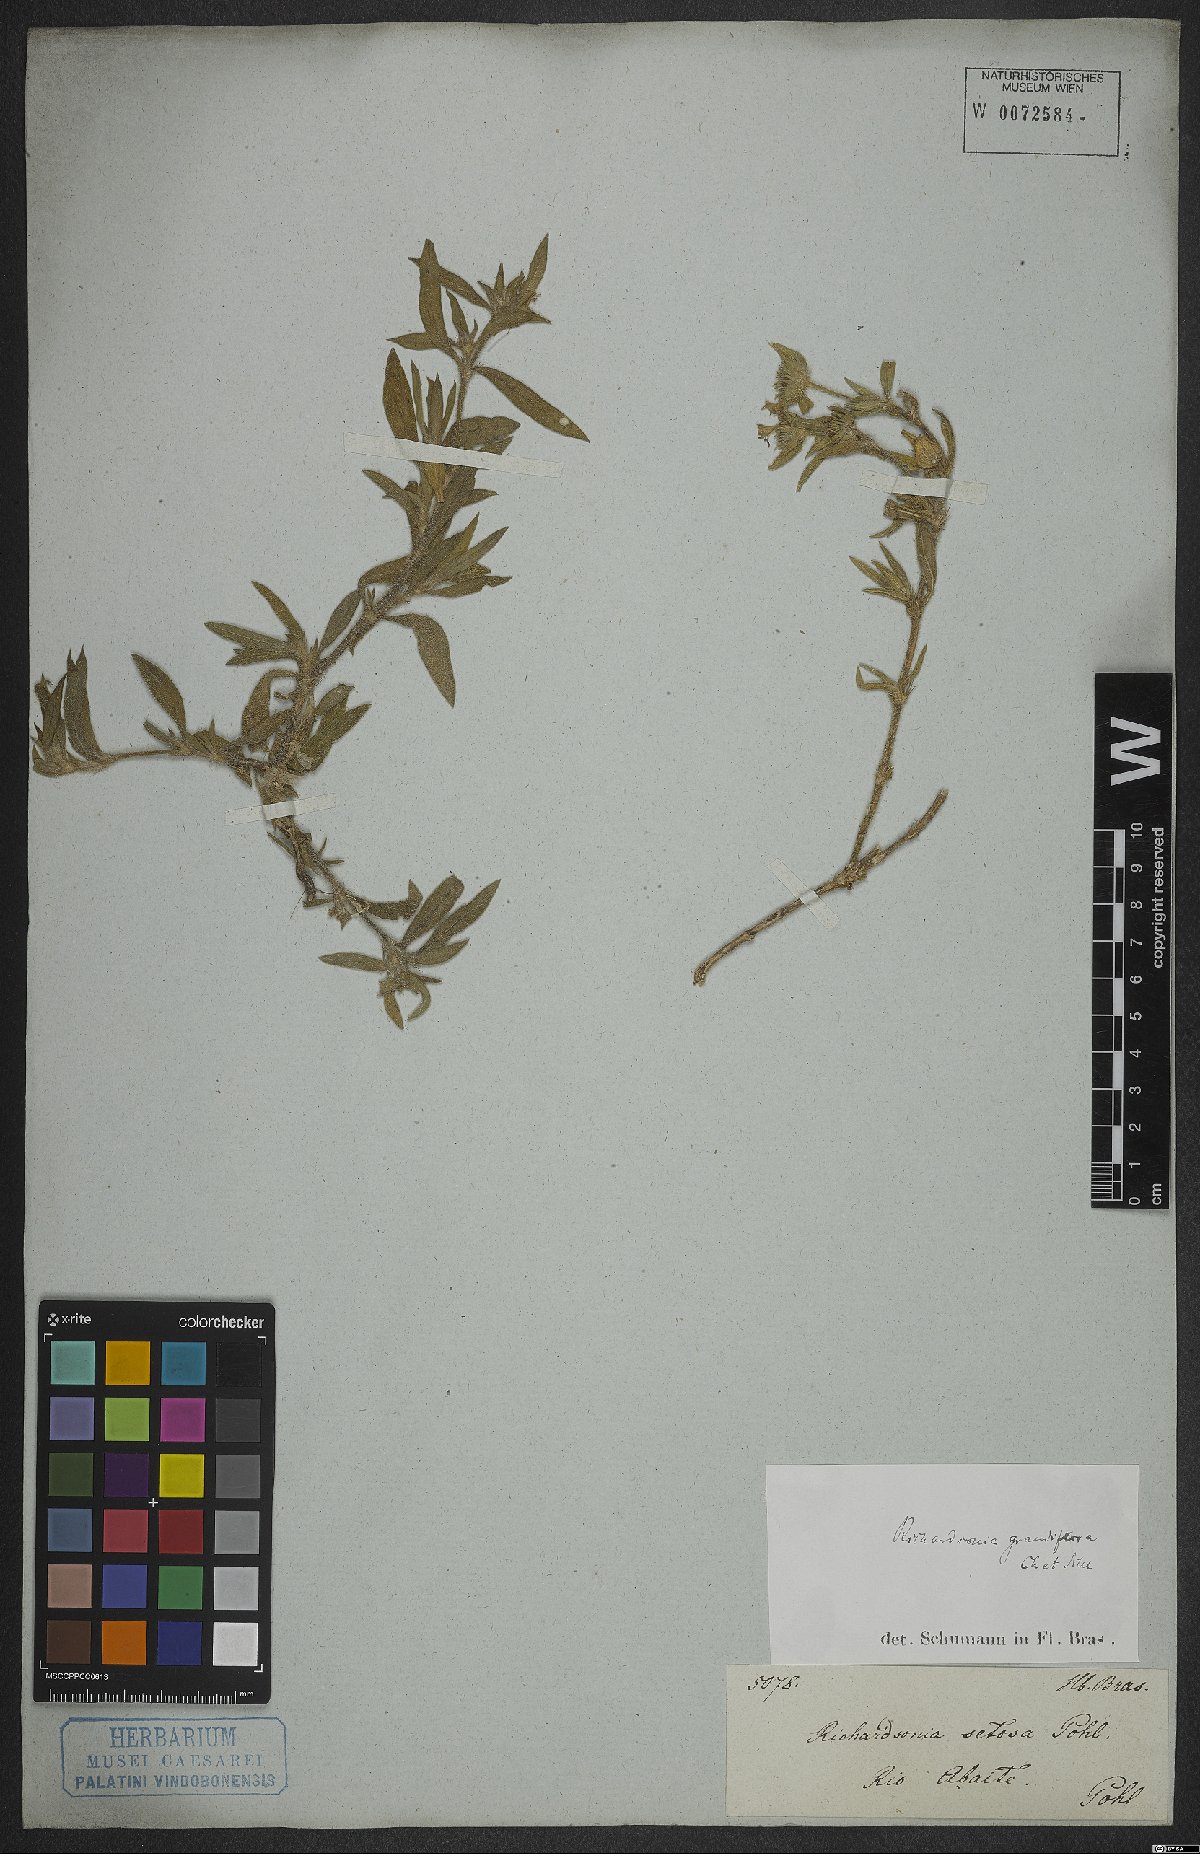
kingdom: Plantae
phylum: Tracheophyta
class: Magnoliopsida
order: Gentianales
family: Rubiaceae
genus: Richardia
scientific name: Richardia grandiflora
